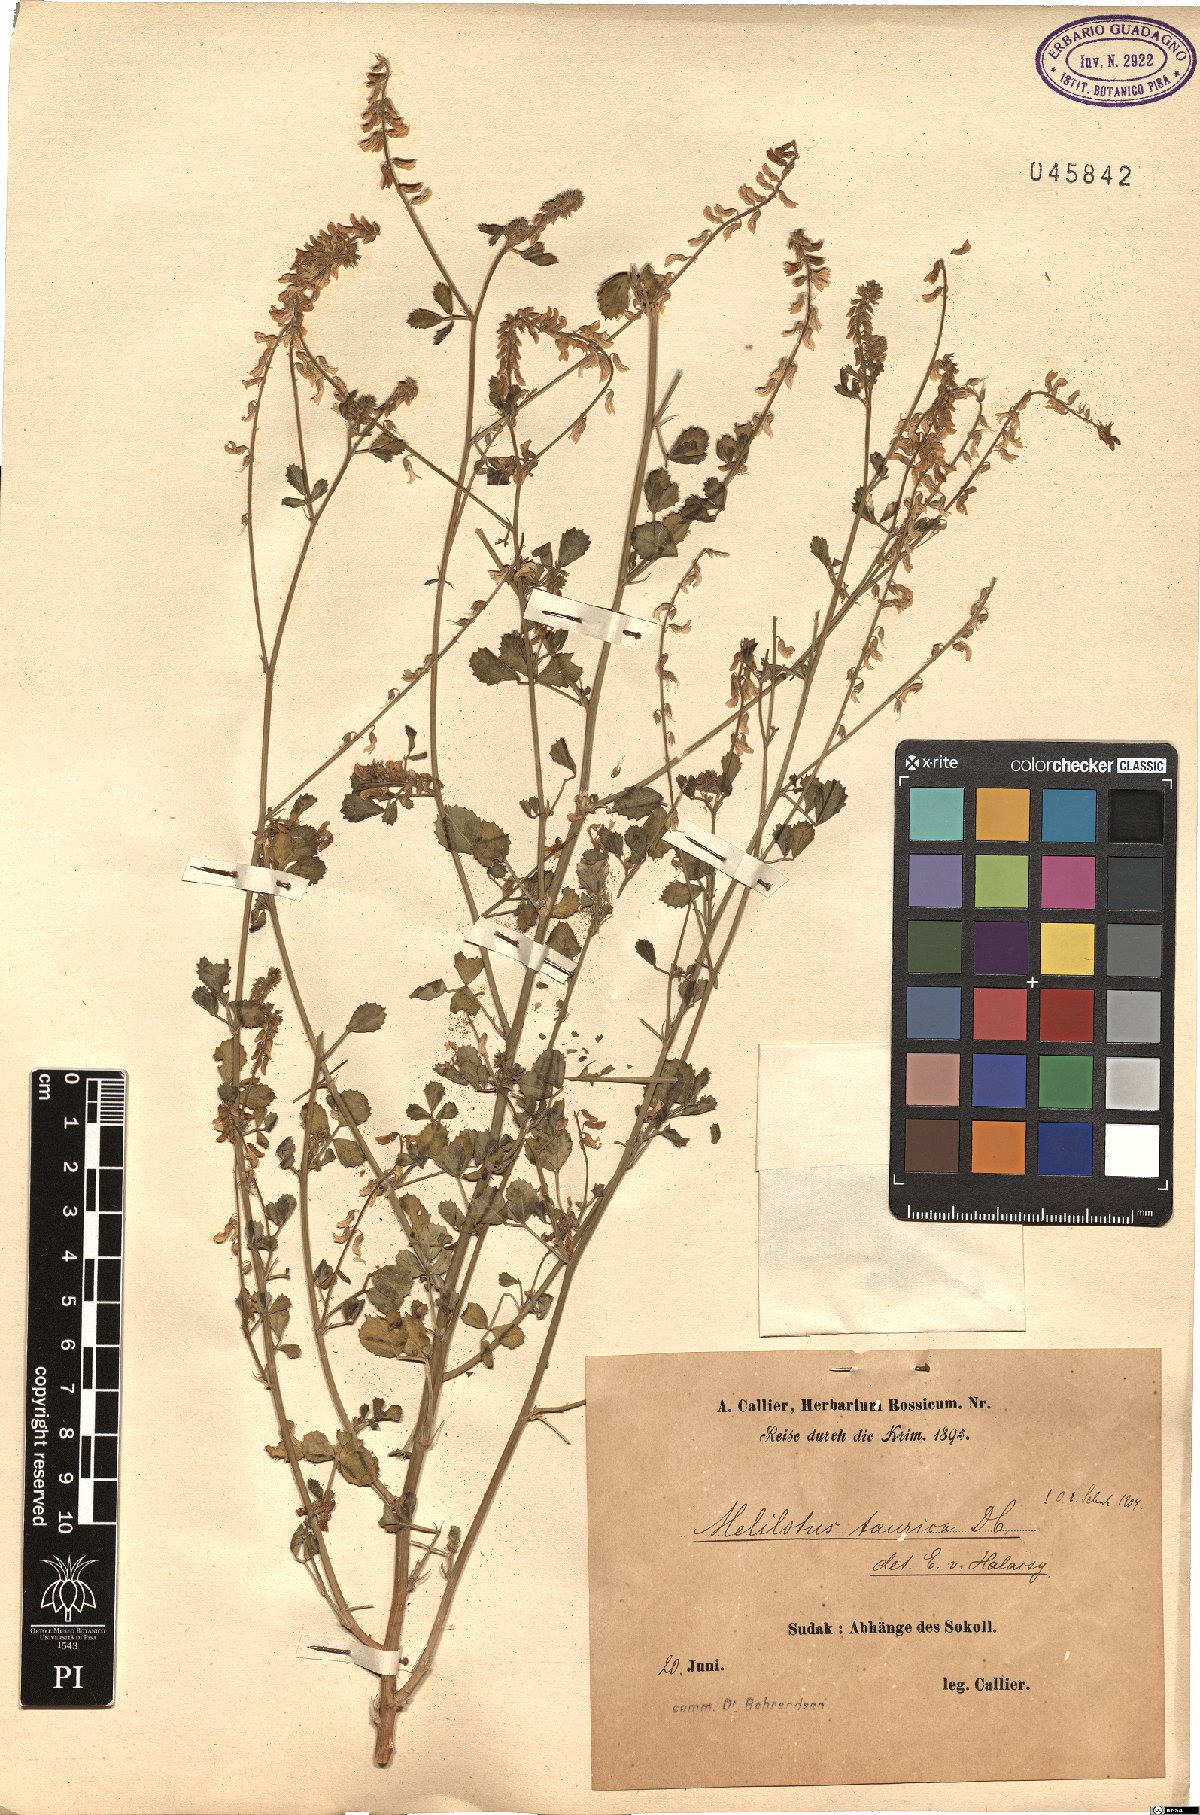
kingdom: Plantae
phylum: Tracheophyta
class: Magnoliopsida
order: Fabales
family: Fabaceae
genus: Melilotus
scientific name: Melilotus tauricus
